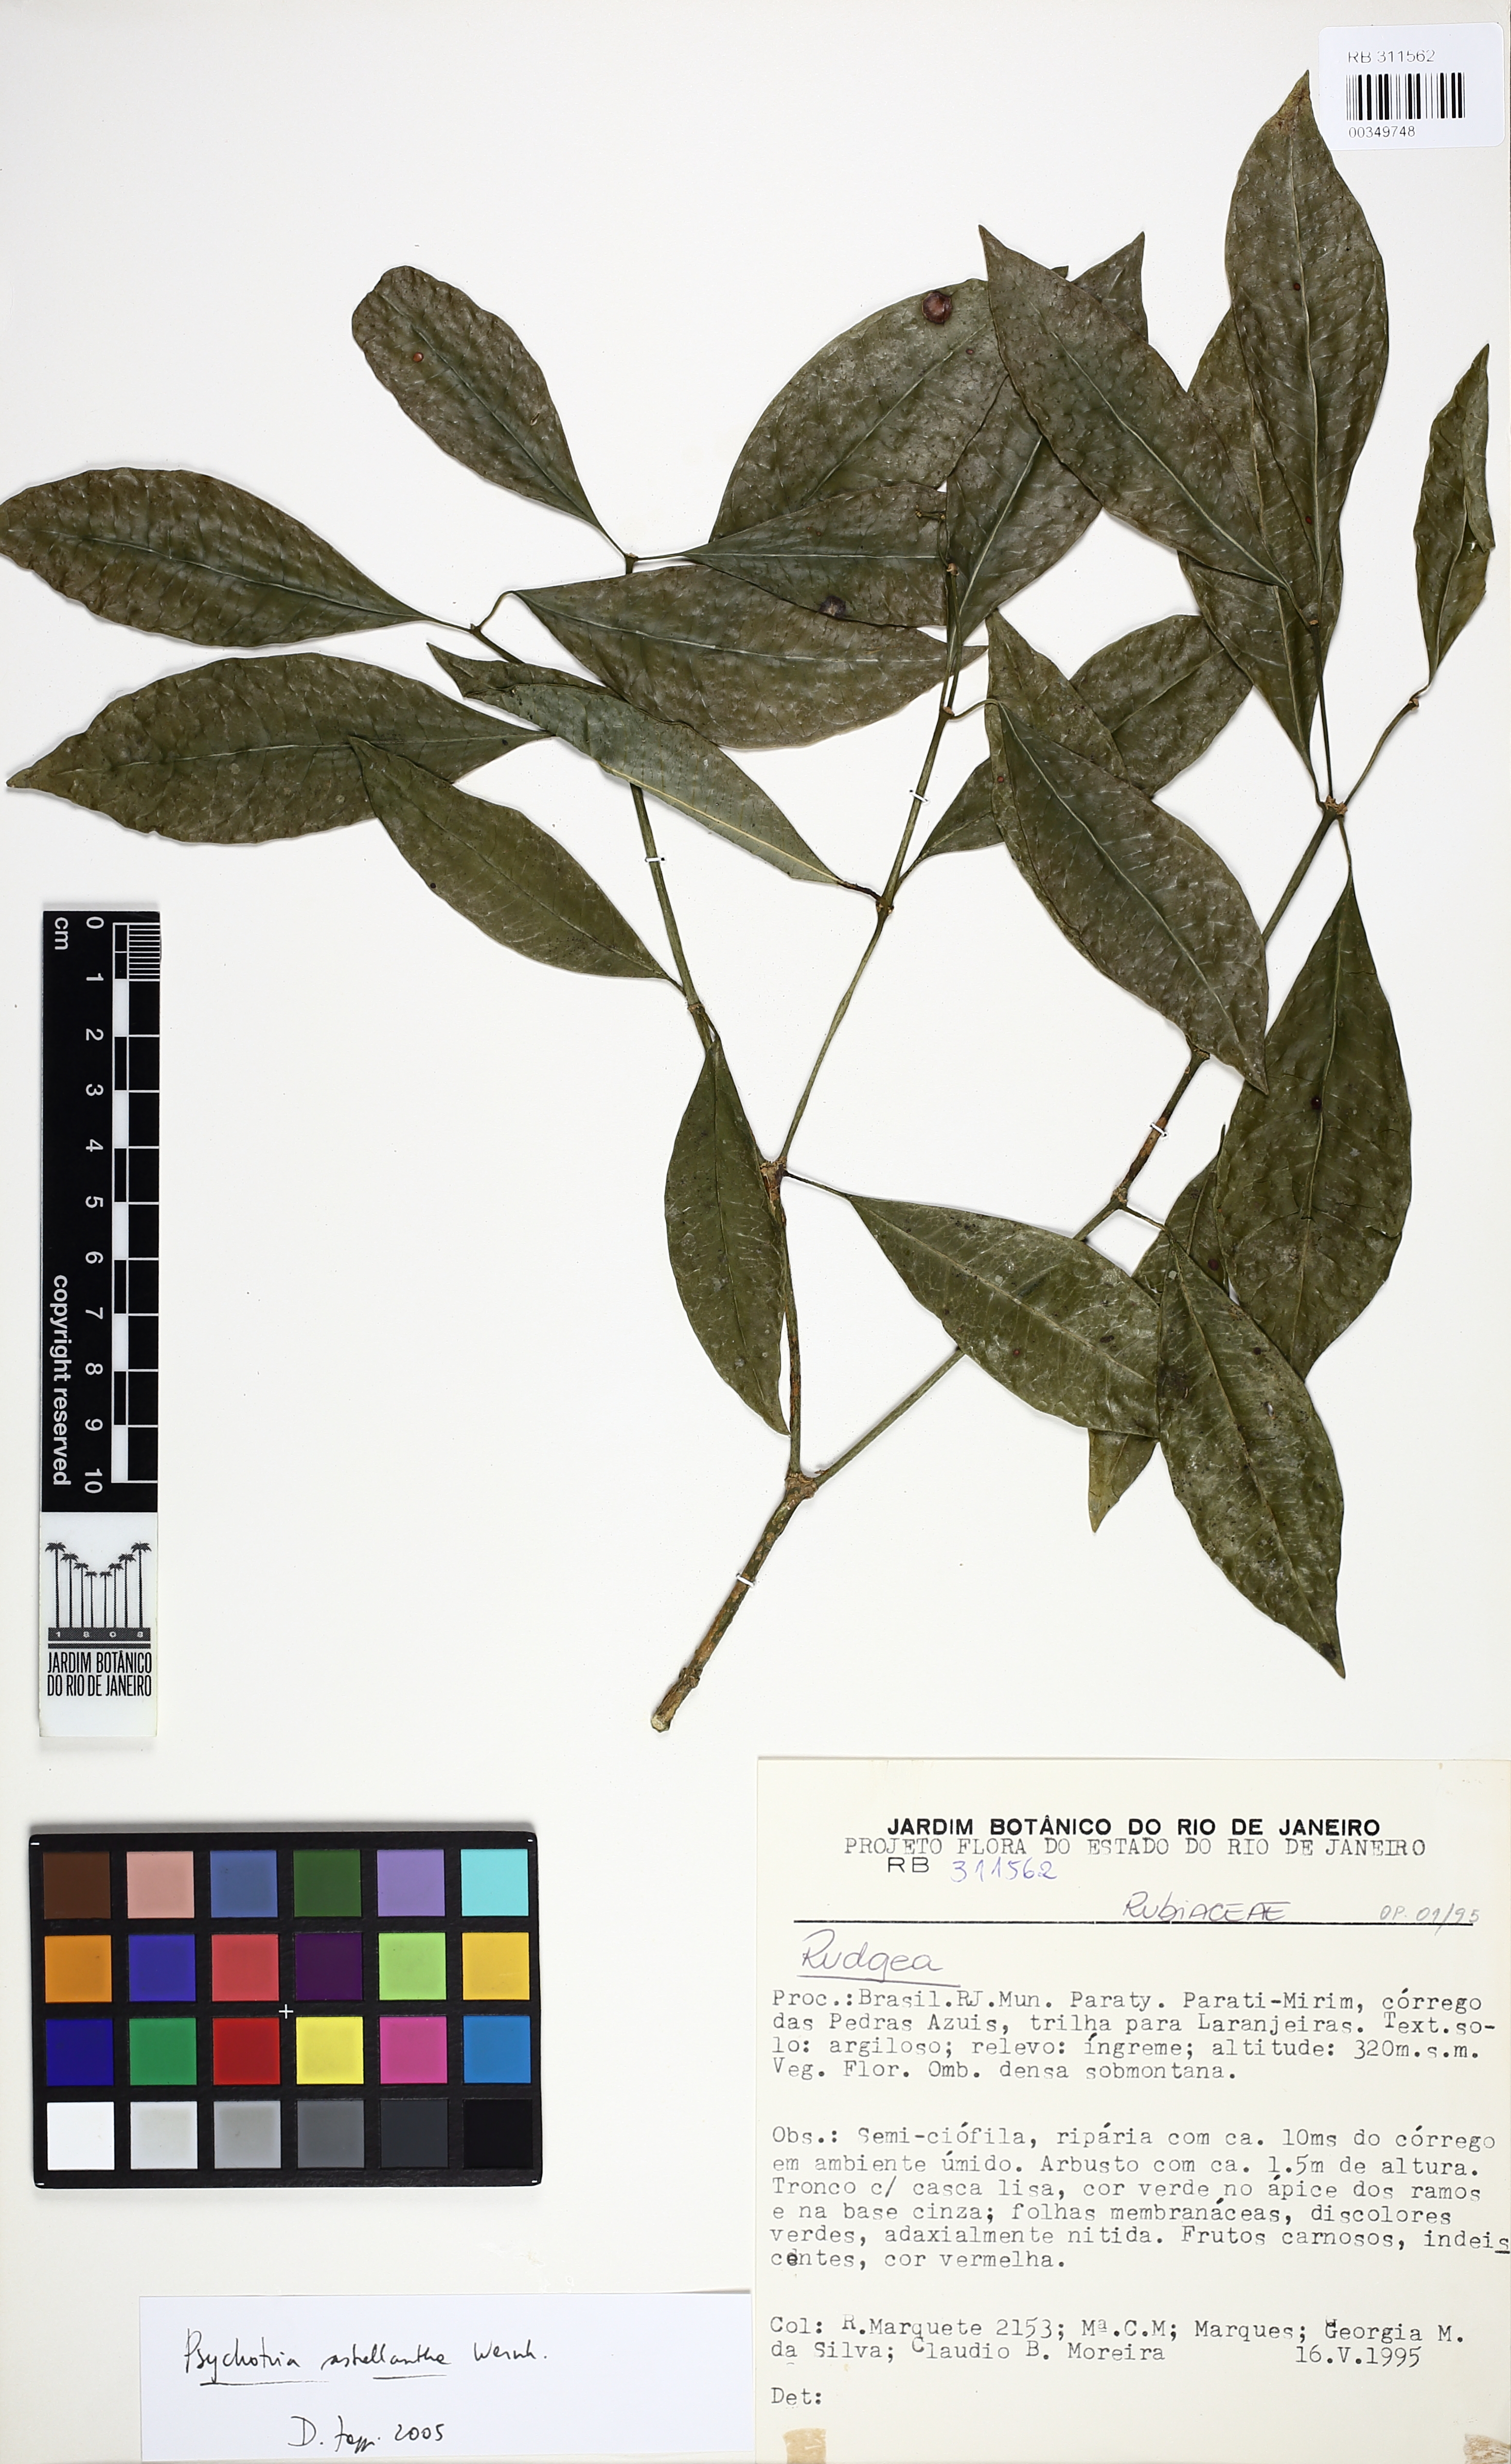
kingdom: Plantae
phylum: Tracheophyta
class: Magnoliopsida
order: Gentianales
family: Rubiaceae
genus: Eumachia
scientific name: Eumachia astrellantha
